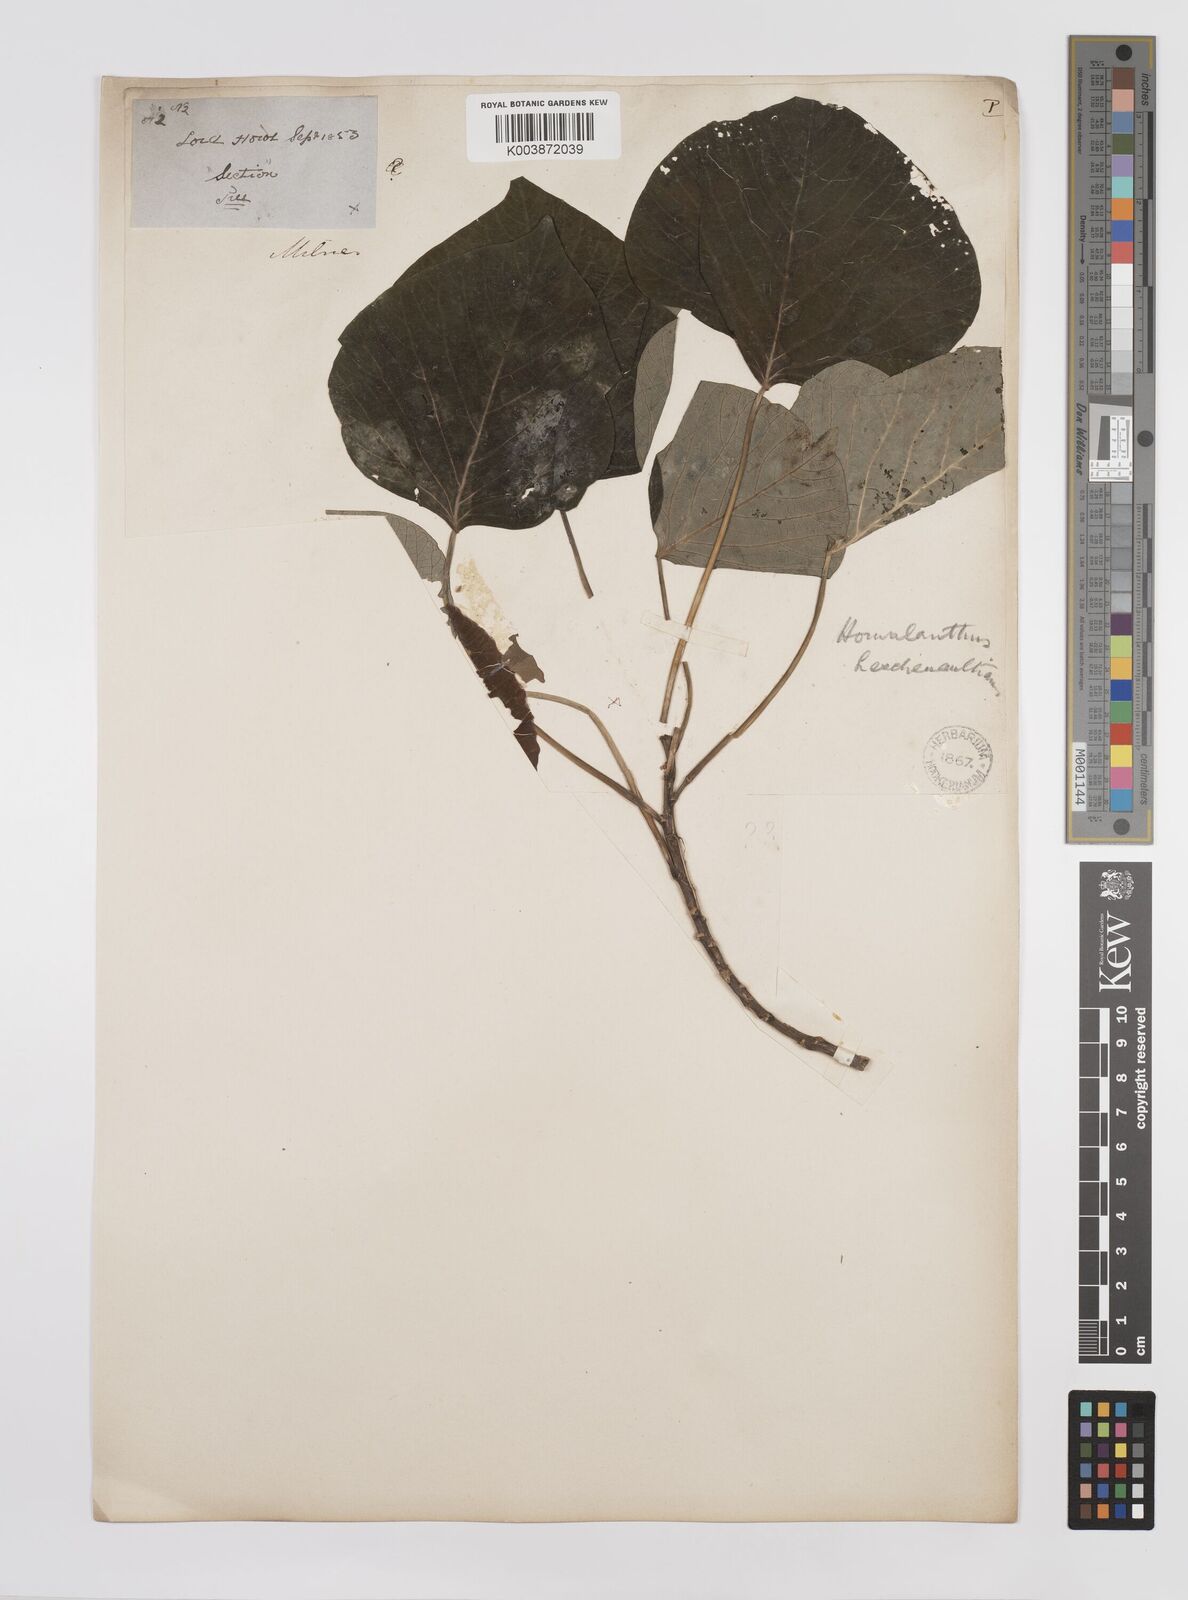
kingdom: Plantae
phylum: Tracheophyta
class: Magnoliopsida
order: Malpighiales
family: Euphorbiaceae
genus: Homalanthus
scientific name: Homalanthus populifolius
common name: Queensland poplar
